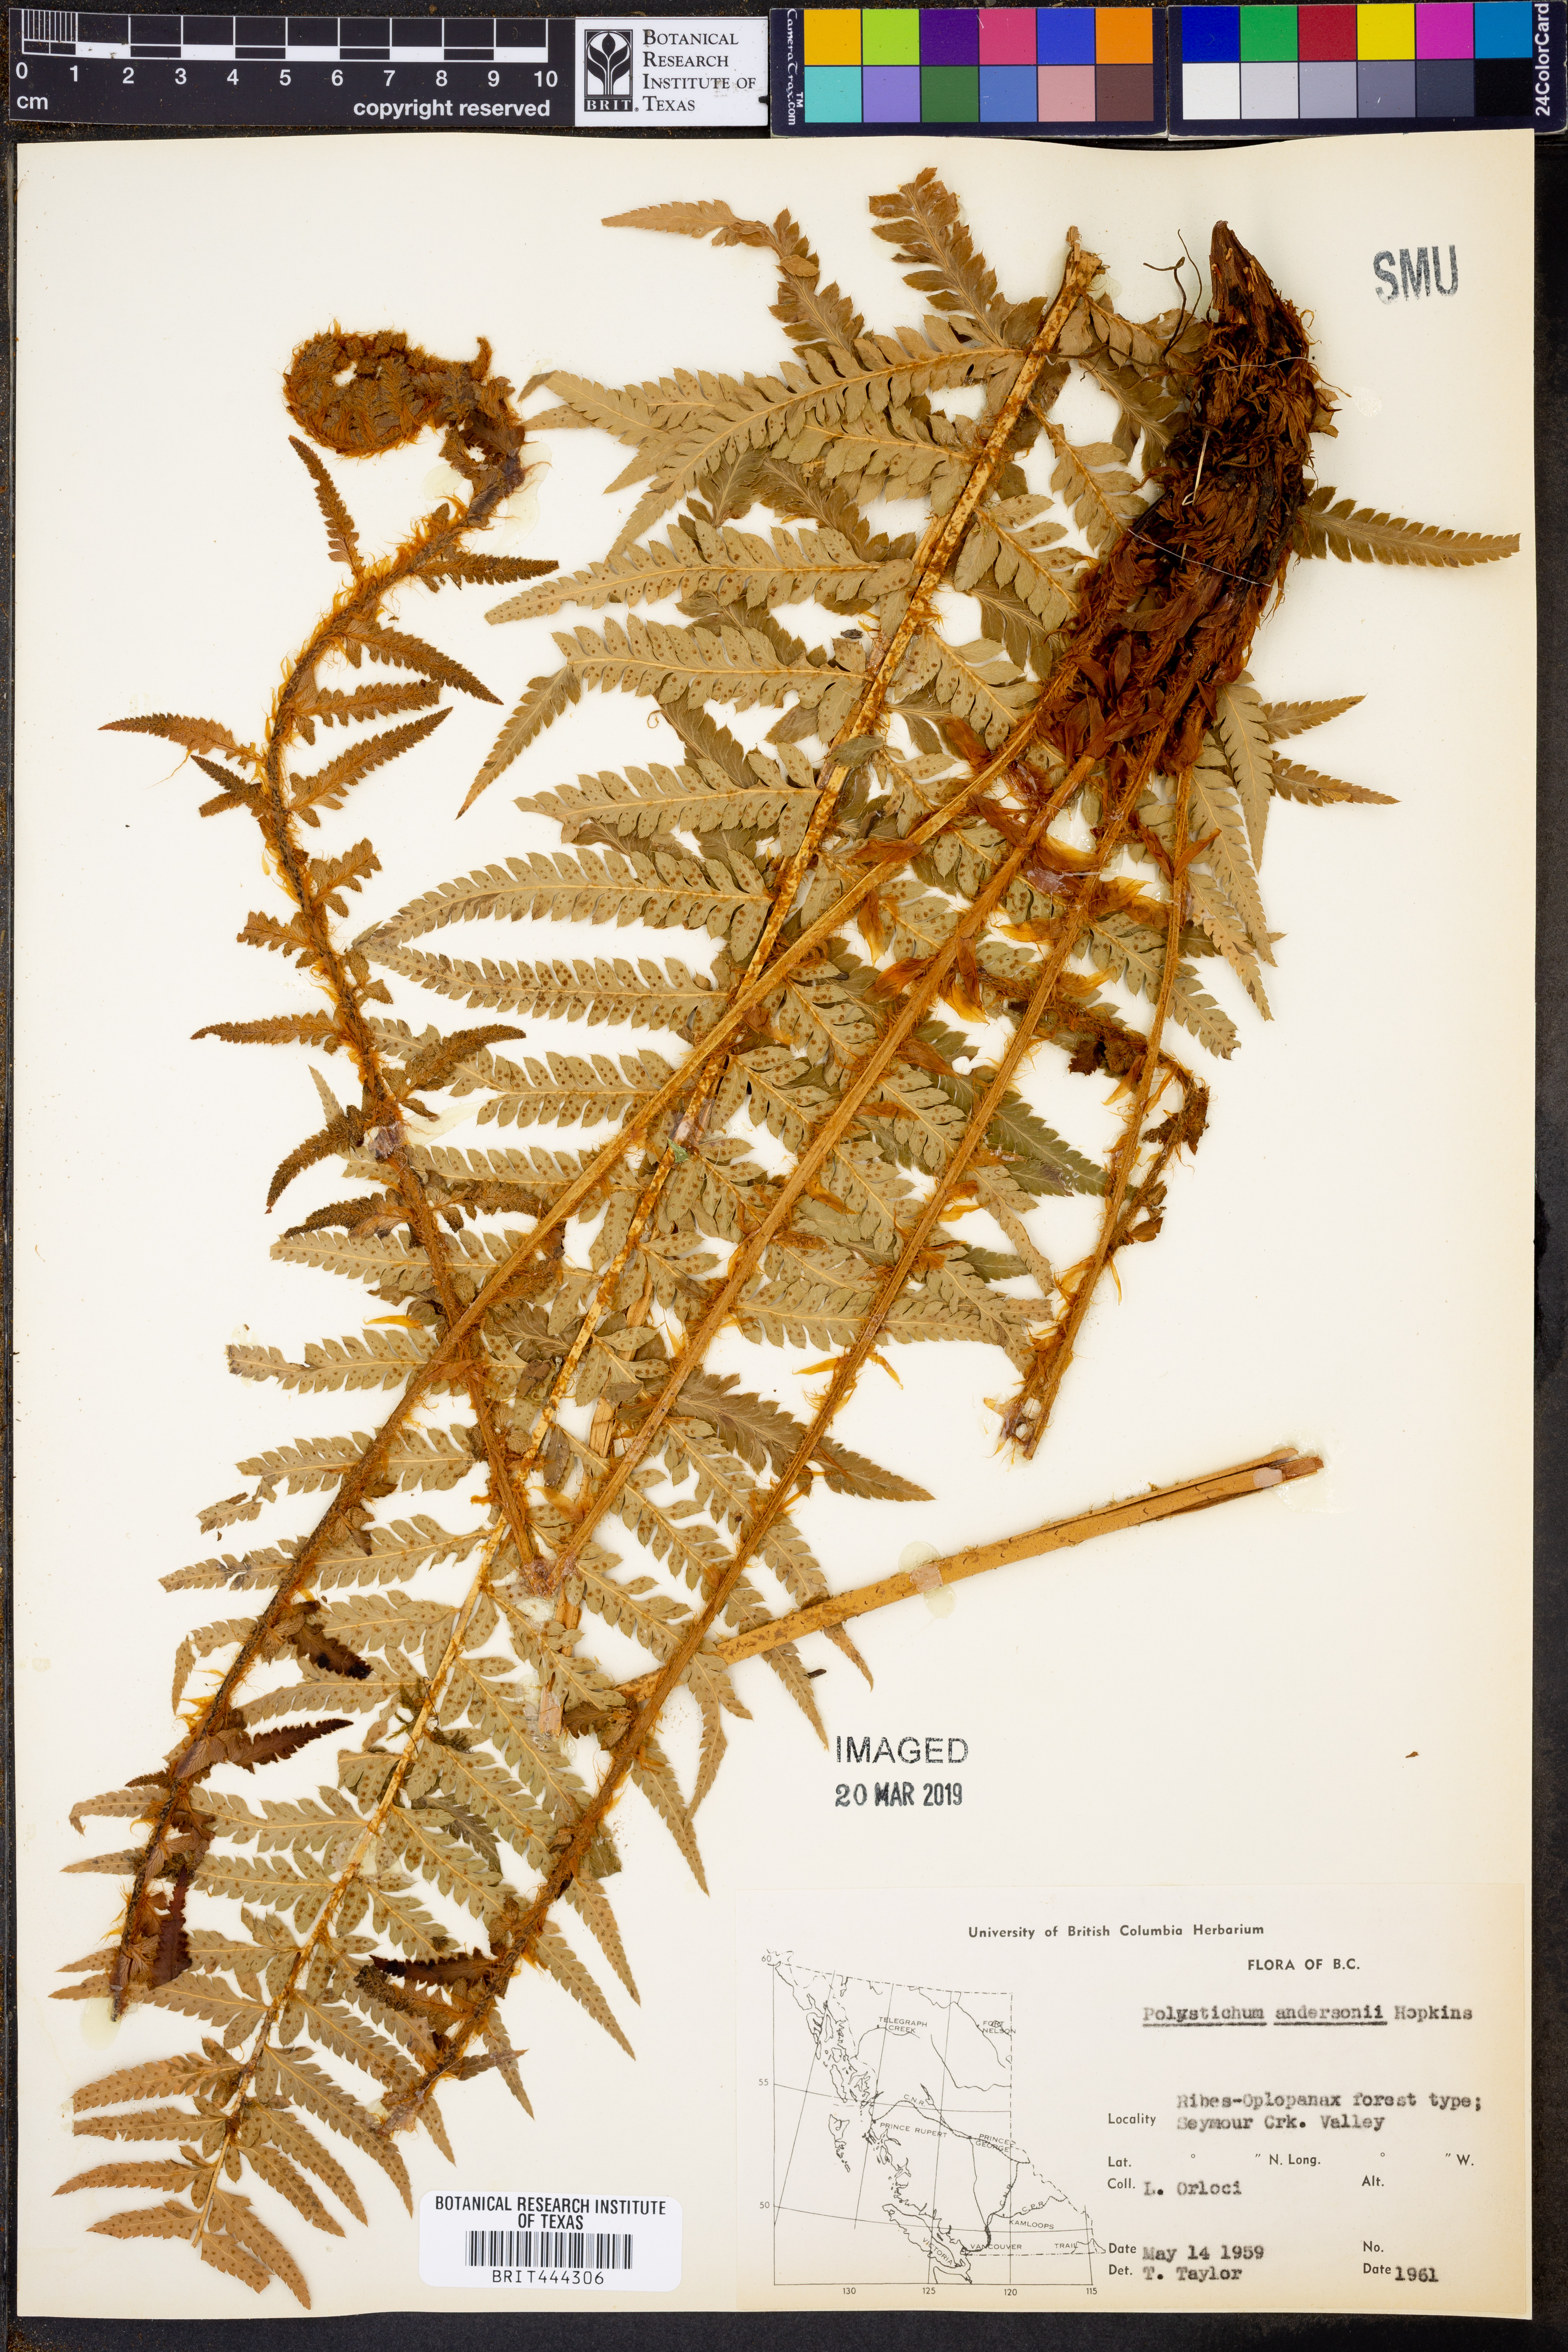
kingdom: Plantae
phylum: Tracheophyta
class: Polypodiopsida
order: Polypodiales
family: Dryopteridaceae
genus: Polystichum
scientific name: Polystichum andersonii
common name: Anderson's holly fern
